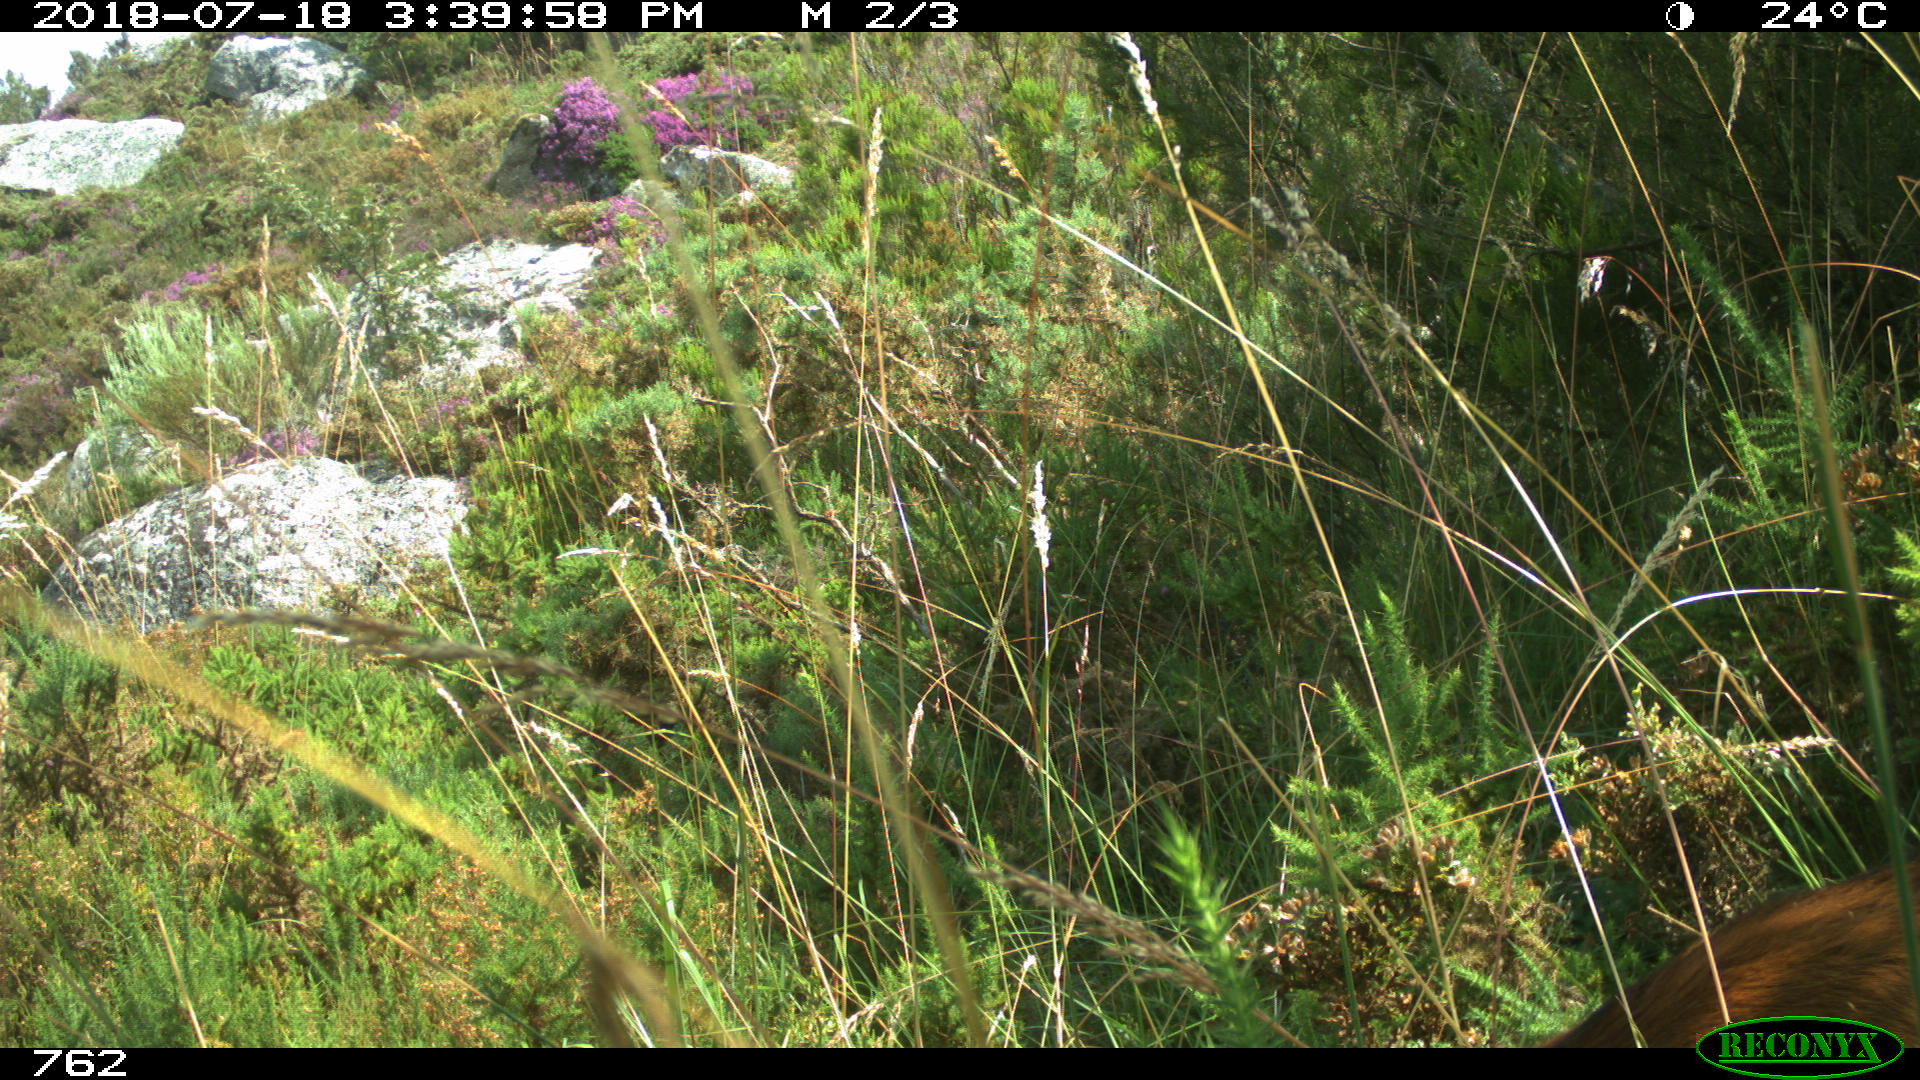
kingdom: Animalia
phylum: Chordata
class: Mammalia
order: Artiodactyla
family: Bovidae
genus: Capra
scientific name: Capra hircus
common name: Domestic goat
